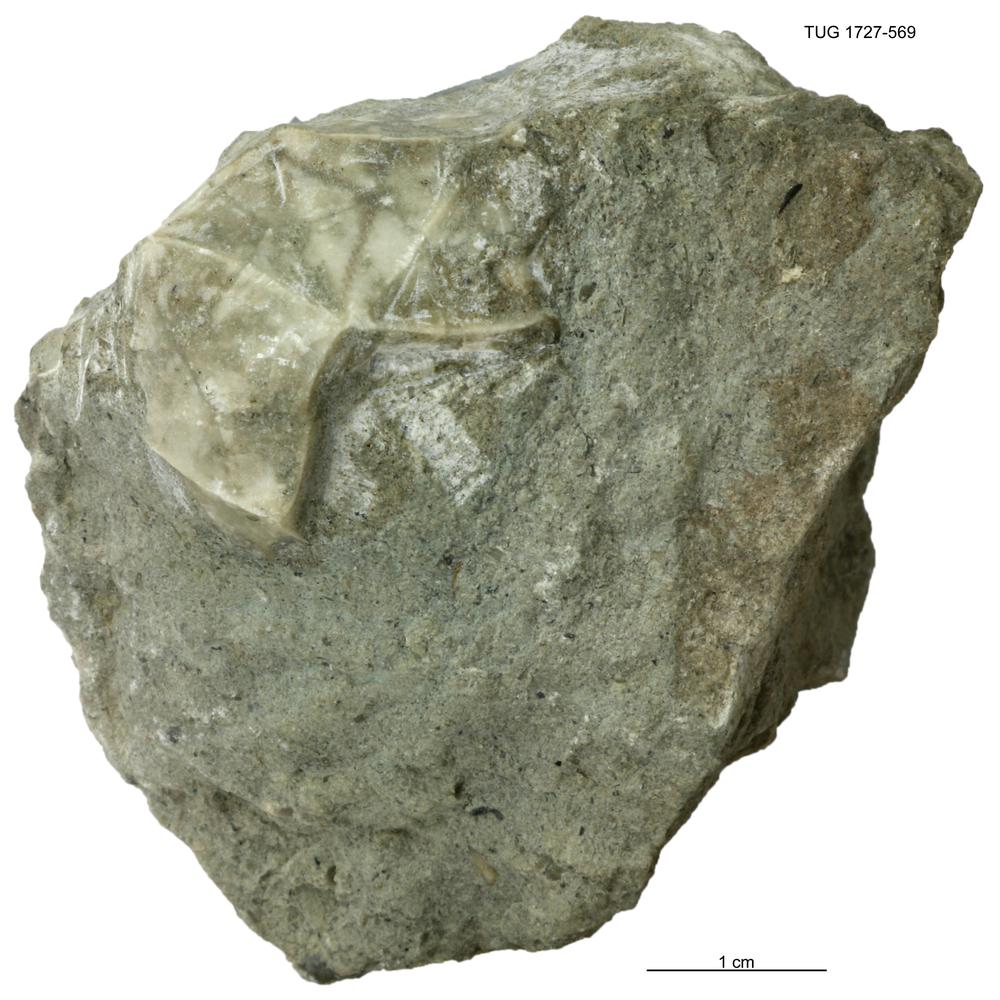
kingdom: Animalia
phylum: Echinodermata
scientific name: Echinodermata
